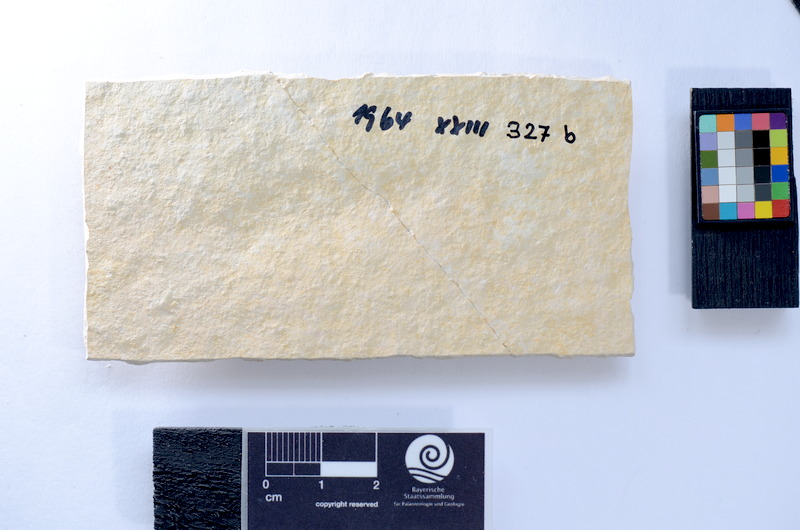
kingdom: Animalia
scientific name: Animalia
